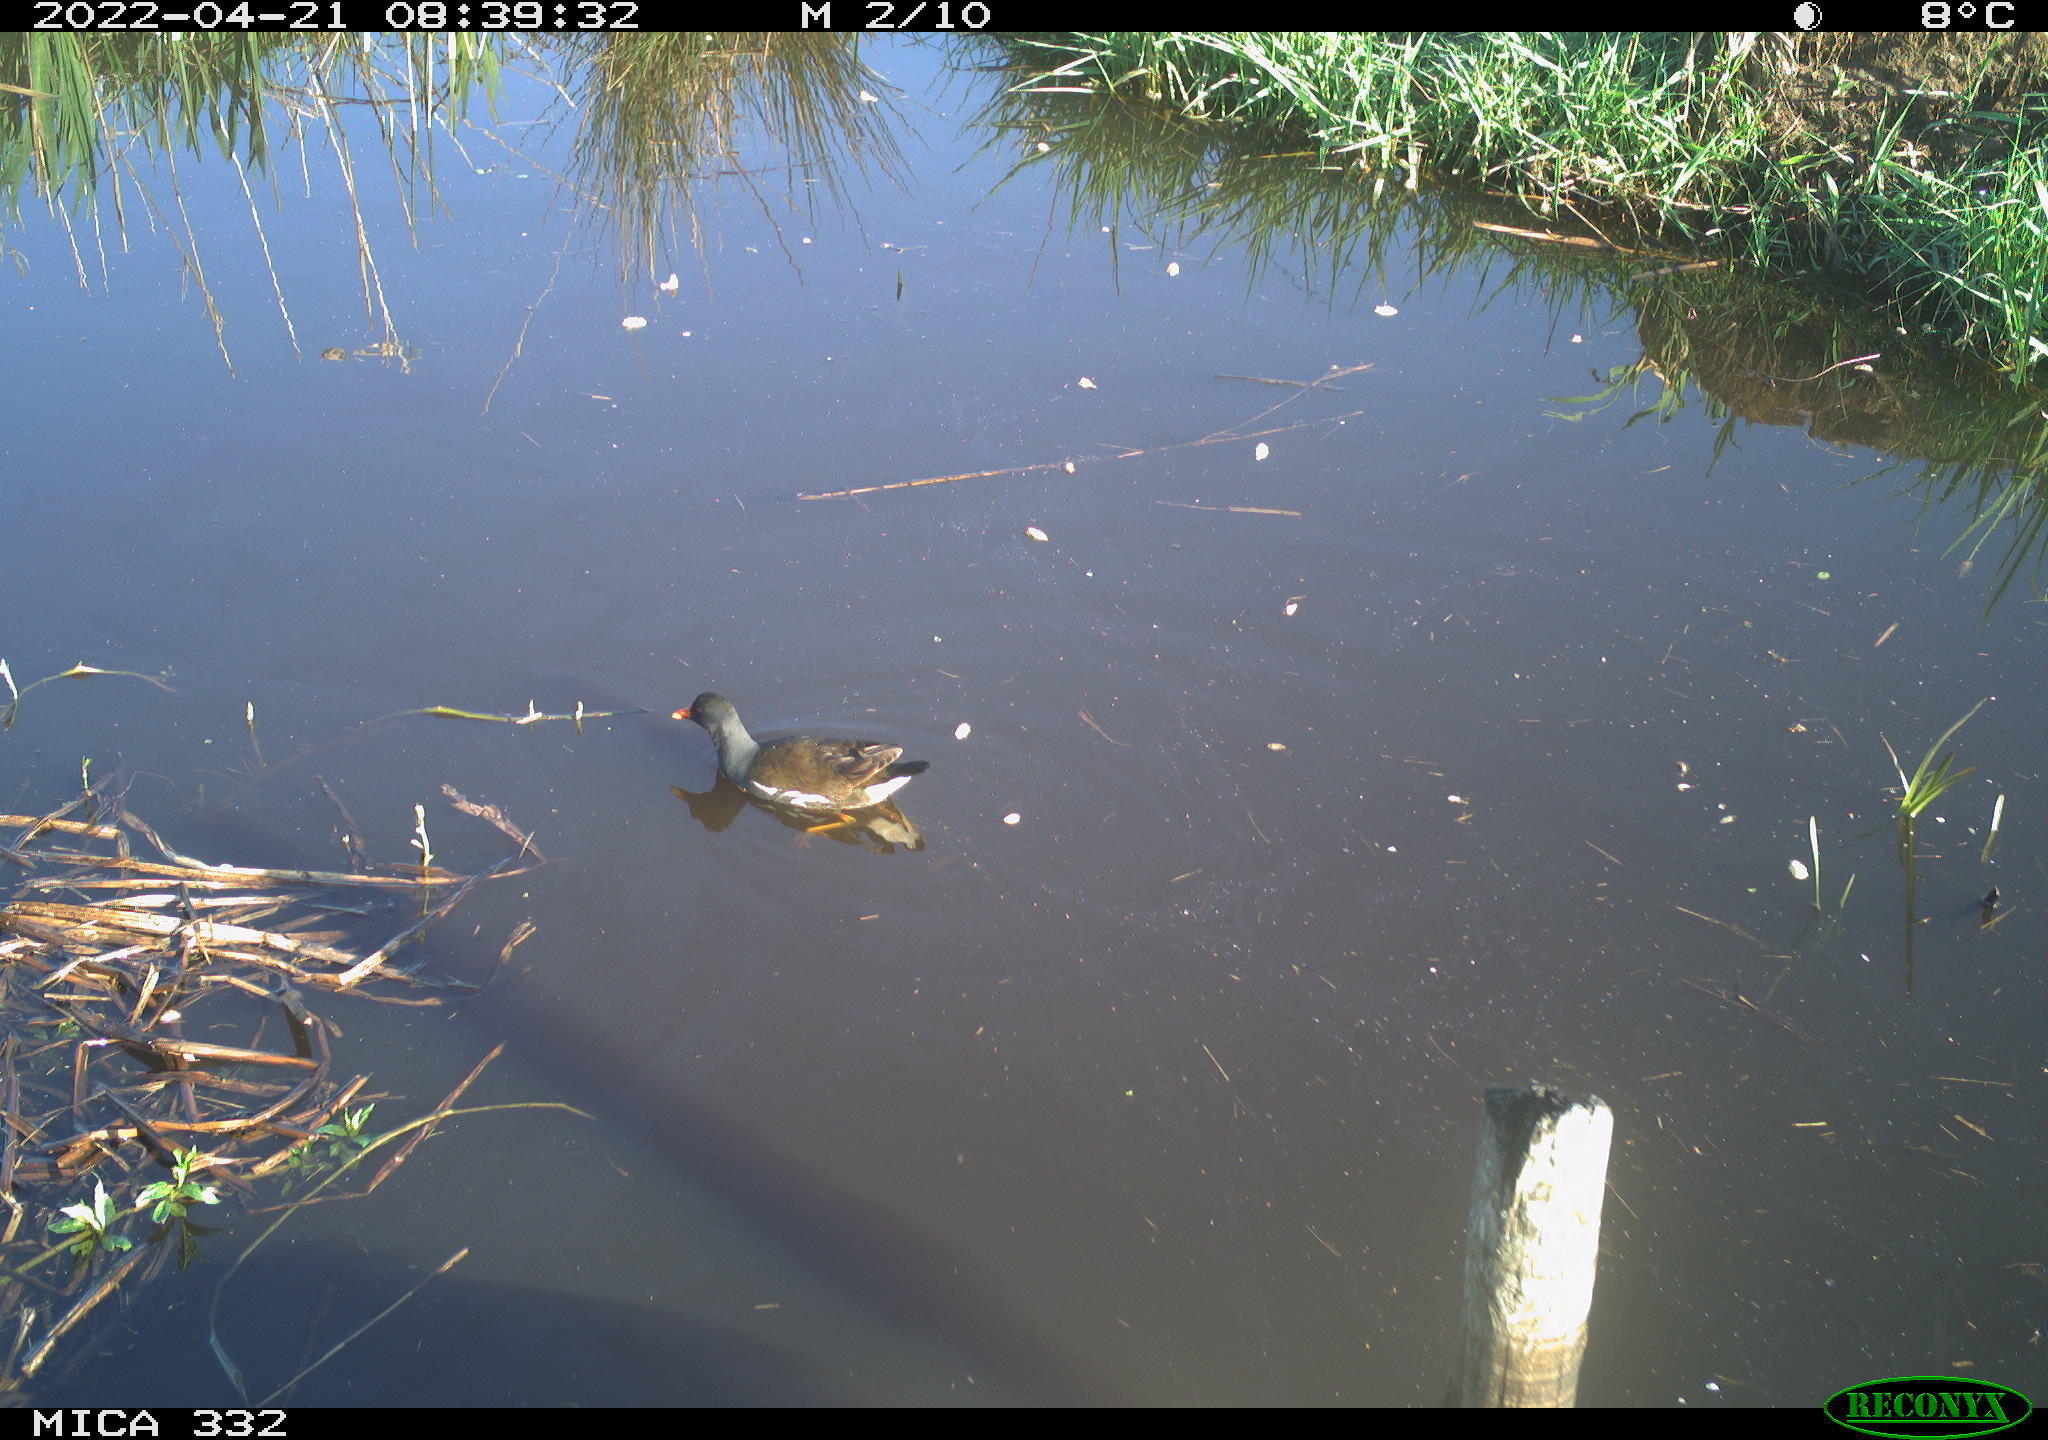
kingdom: Animalia
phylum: Chordata
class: Aves
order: Gruiformes
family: Rallidae
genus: Gallinula
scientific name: Gallinula chloropus
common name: Common moorhen
